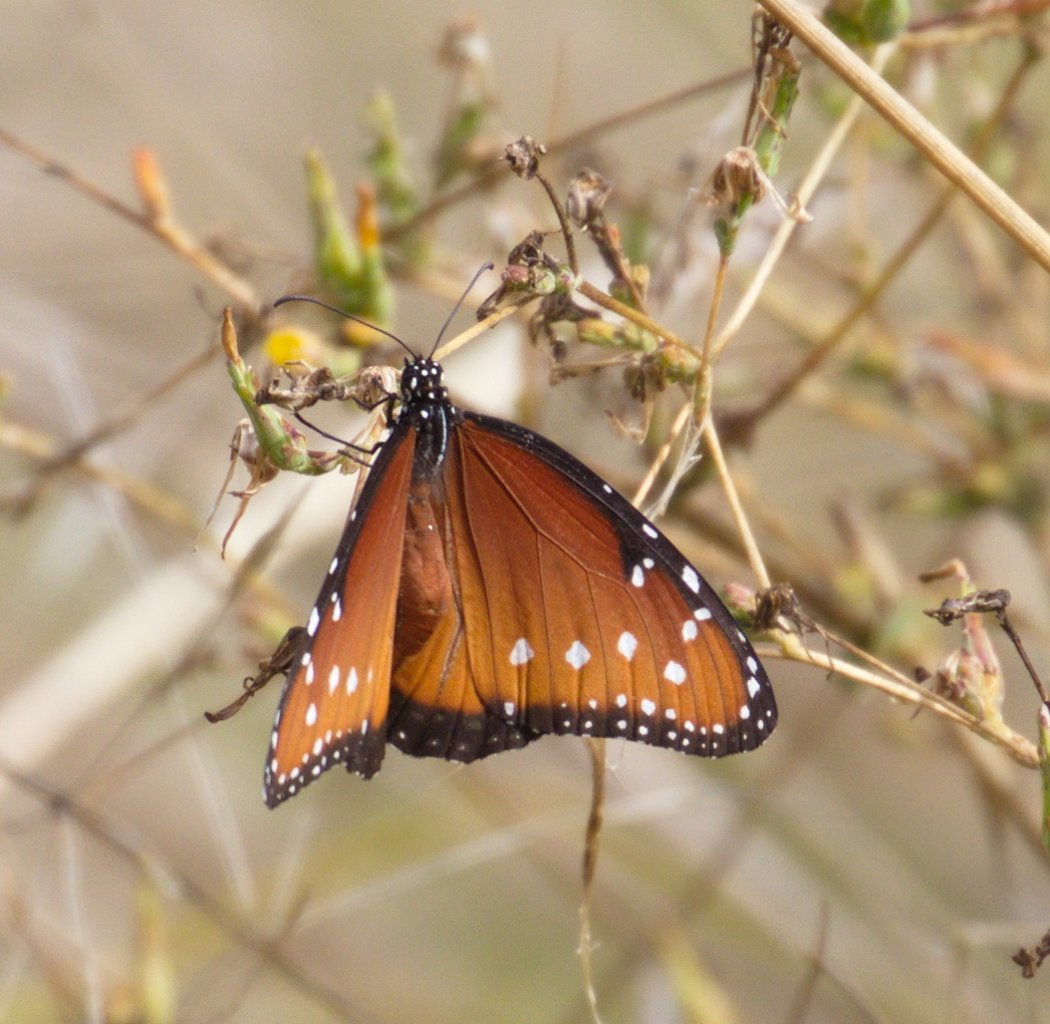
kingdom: Animalia
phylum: Arthropoda
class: Insecta
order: Lepidoptera
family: Nymphalidae
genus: Danaus
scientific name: Danaus gilippus
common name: Queen
